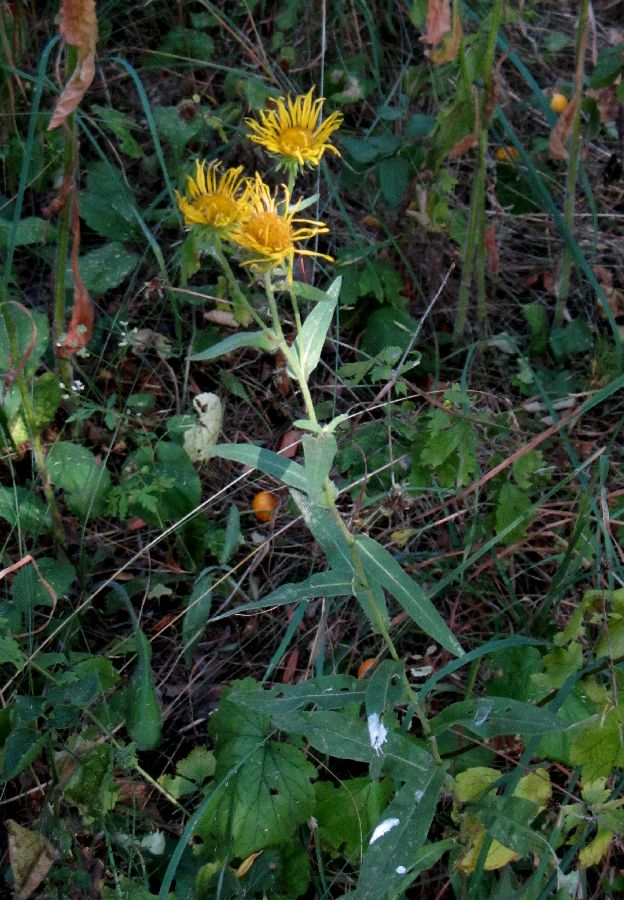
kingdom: Plantae
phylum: Tracheophyta
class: Magnoliopsida
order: Asterales
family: Asteraceae
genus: Pentanema
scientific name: Pentanema britannicum
